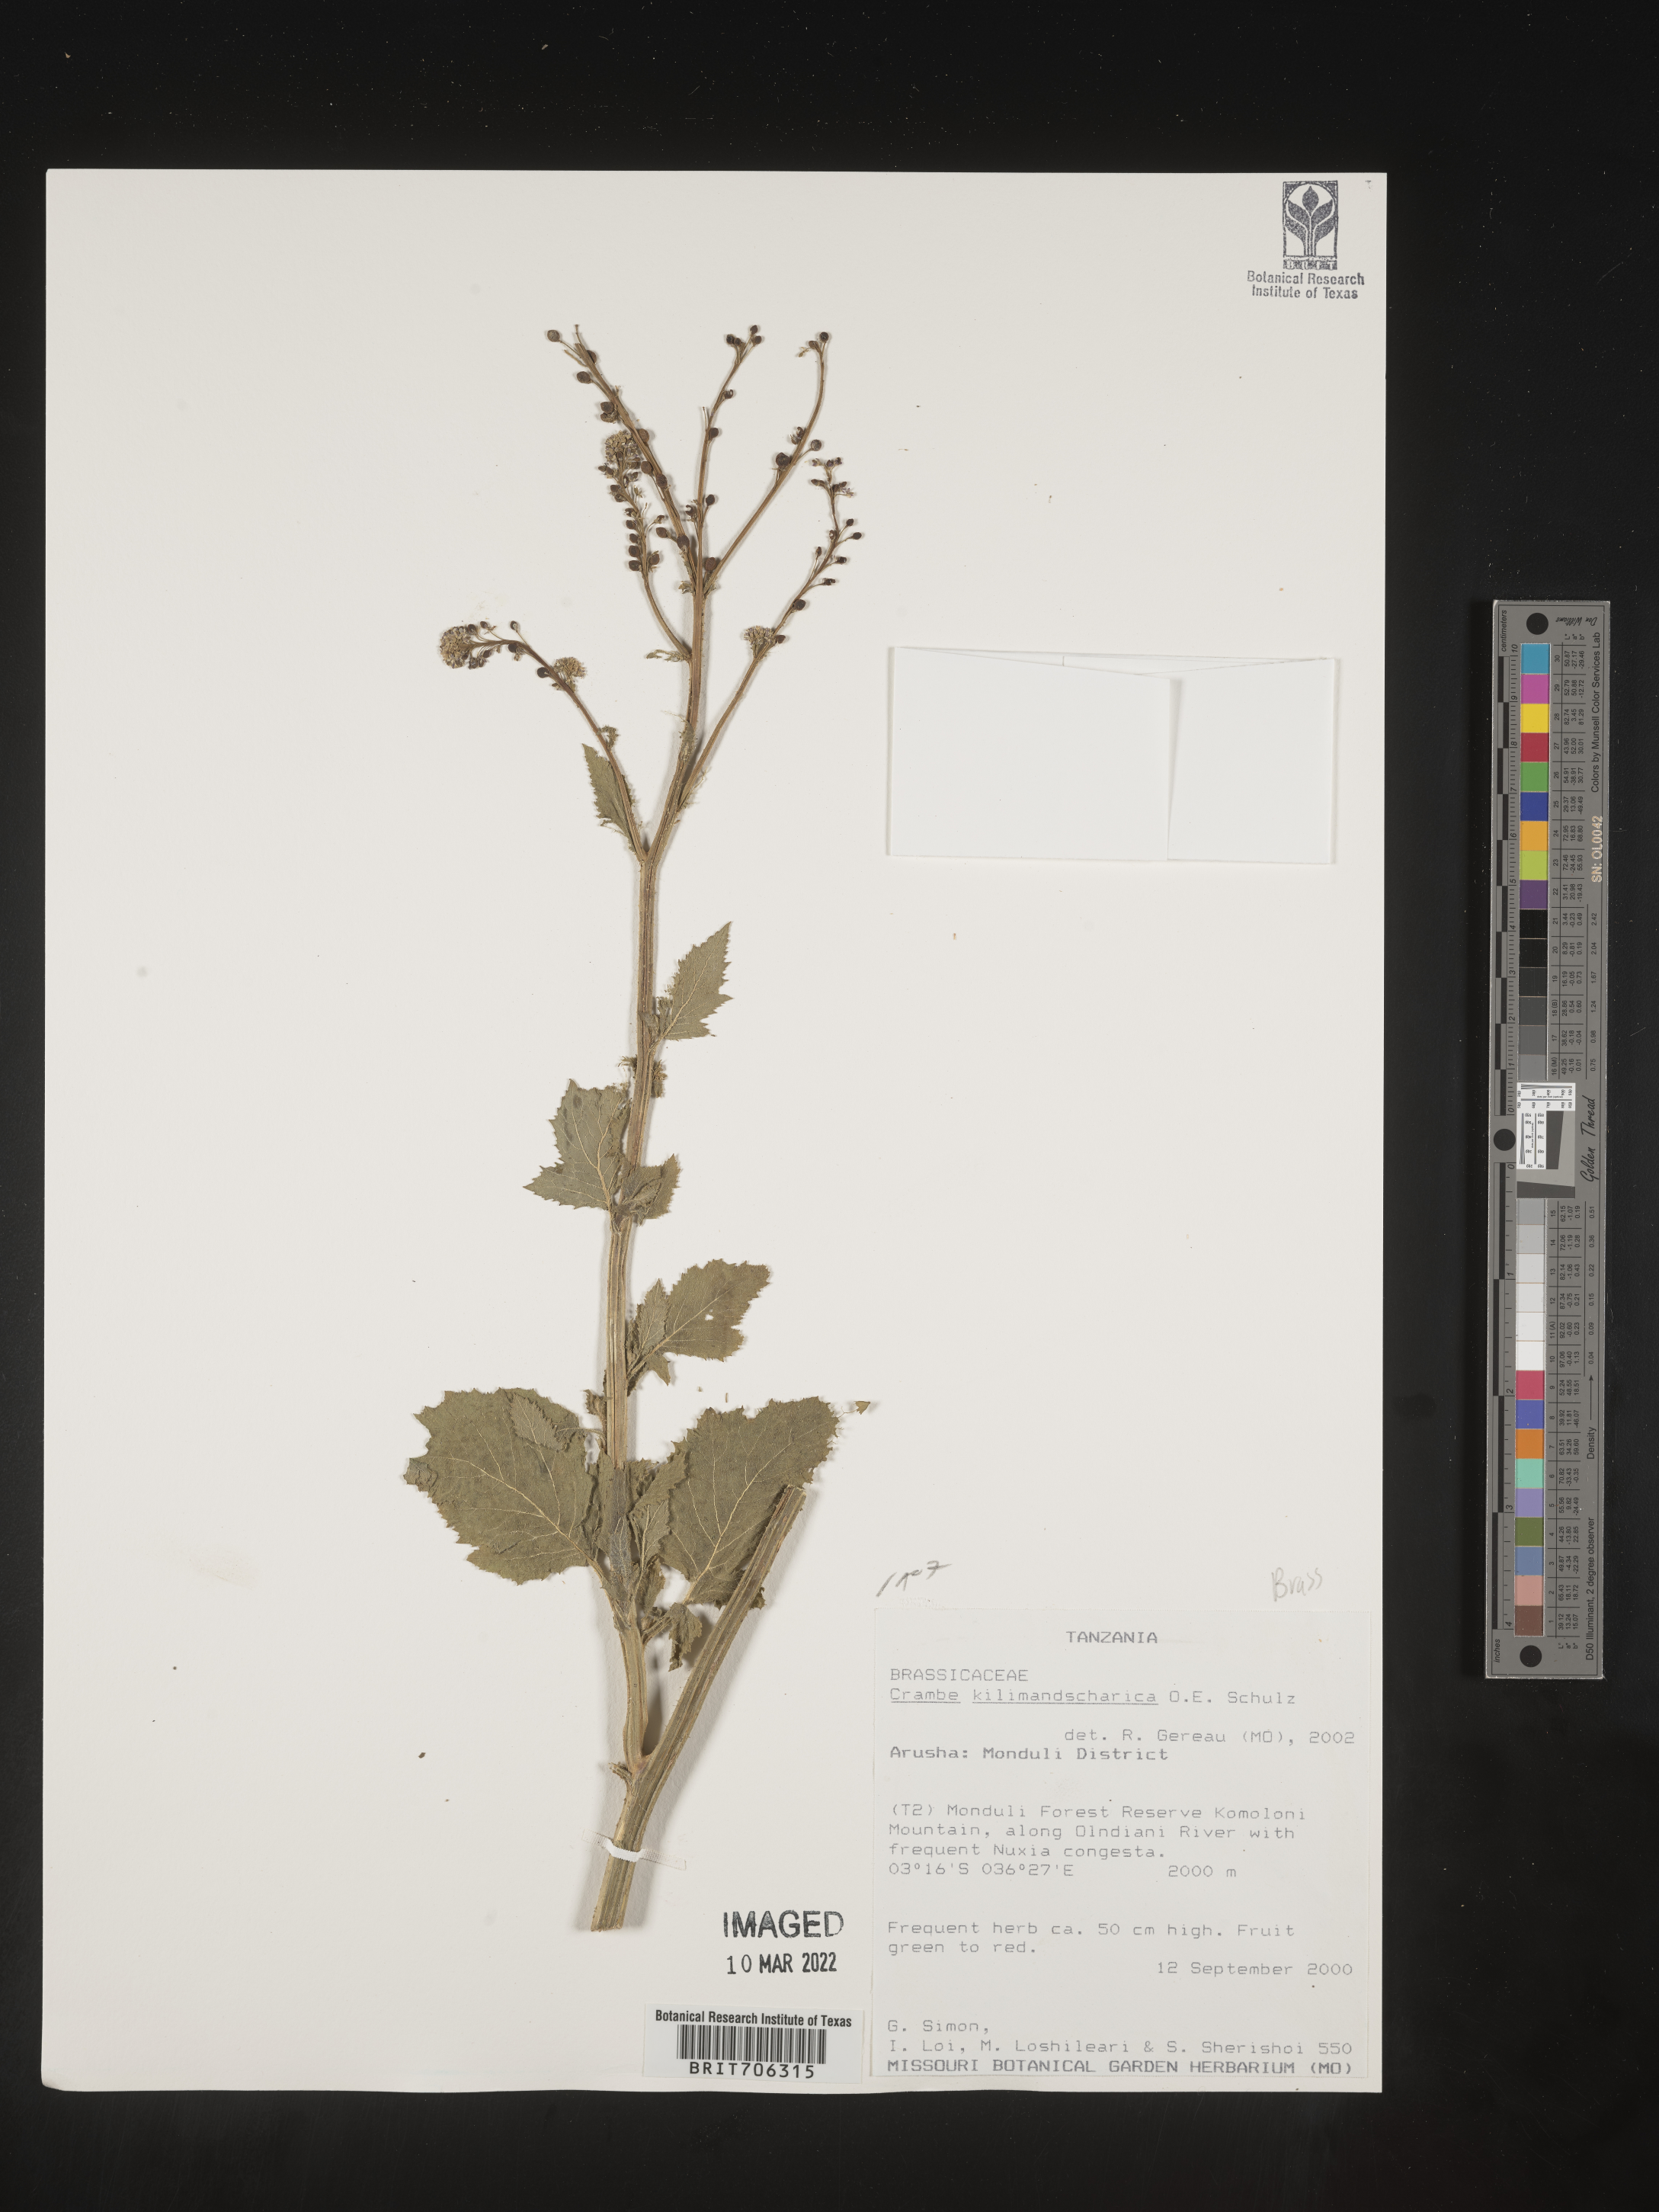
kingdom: Plantae
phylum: Tracheophyta
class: Magnoliopsida
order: Brassicales
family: Brassicaceae
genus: Crambe
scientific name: Crambe
